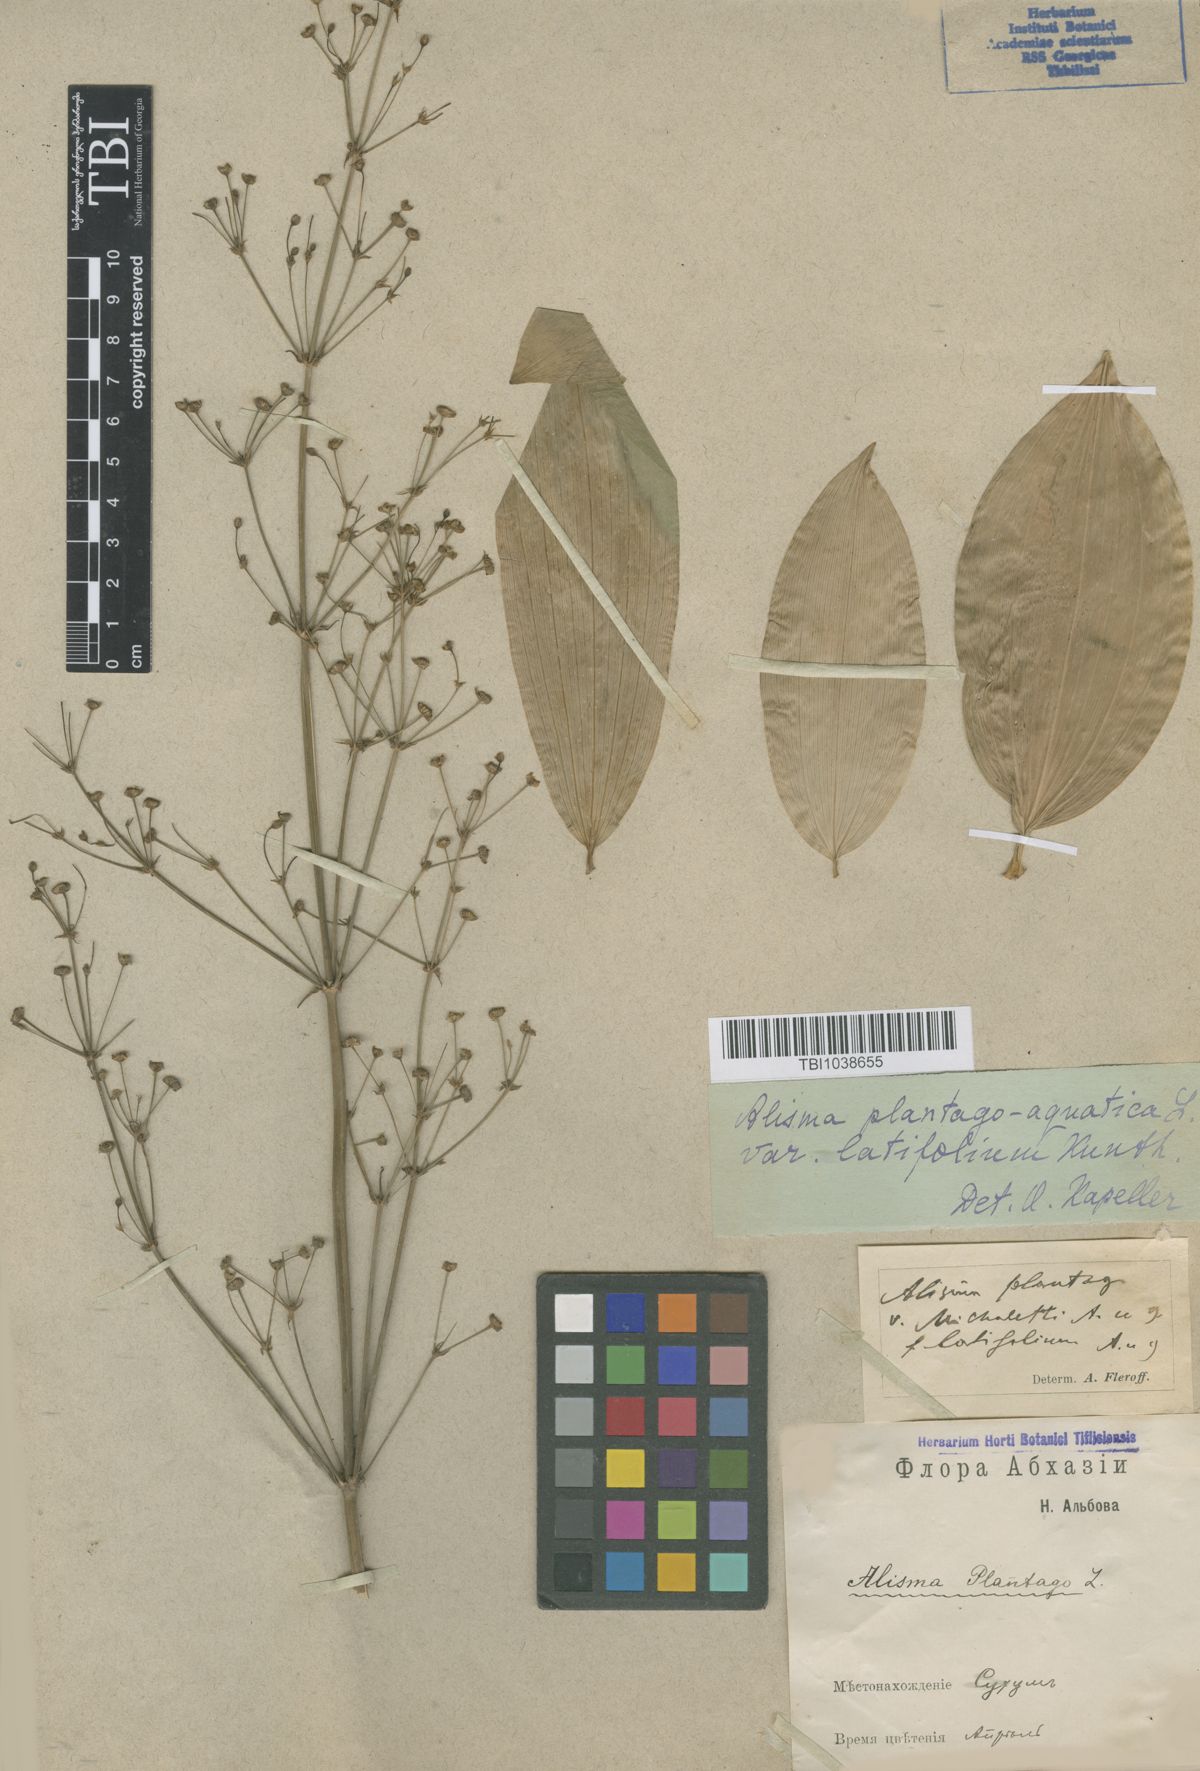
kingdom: Plantae
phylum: Tracheophyta
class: Liliopsida
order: Alismatales
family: Alismataceae
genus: Alisma
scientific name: Alisma plantago-aquatica
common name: Water-plantain
